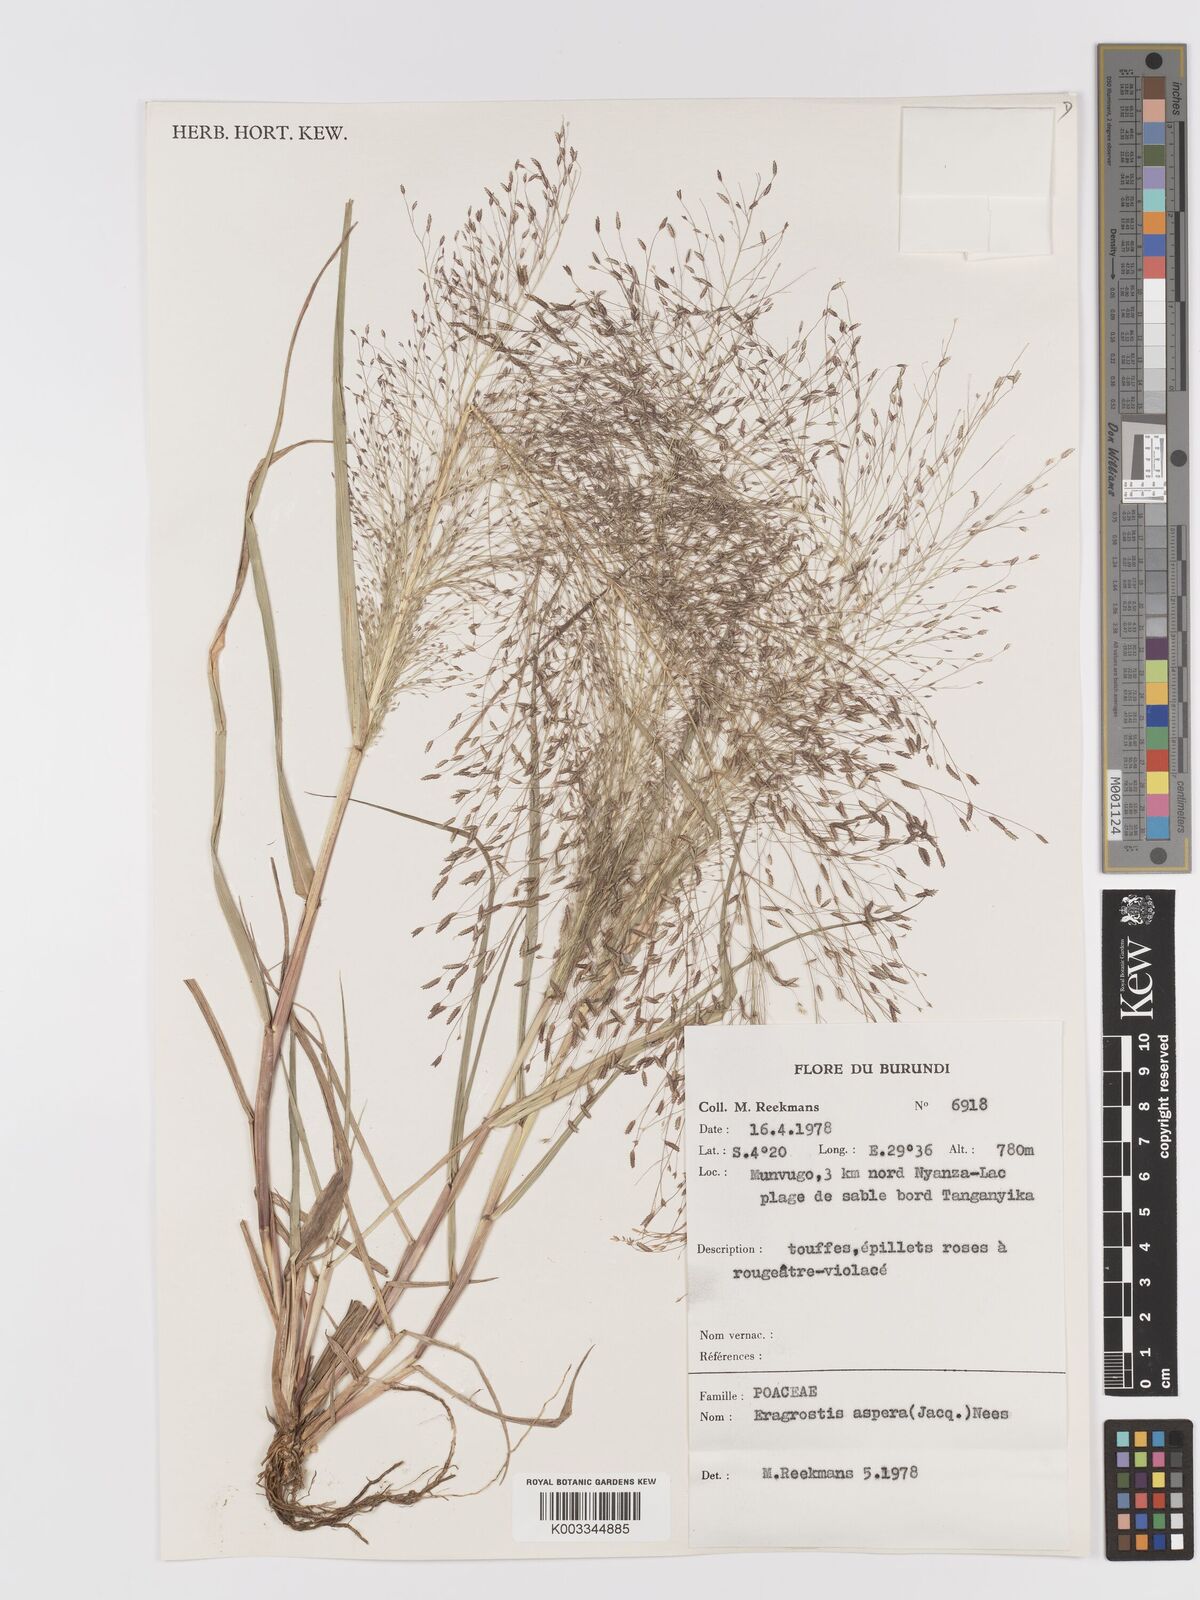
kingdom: Plantae
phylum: Tracheophyta
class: Liliopsida
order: Poales
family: Poaceae
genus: Eragrostis
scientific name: Eragrostis aspera
